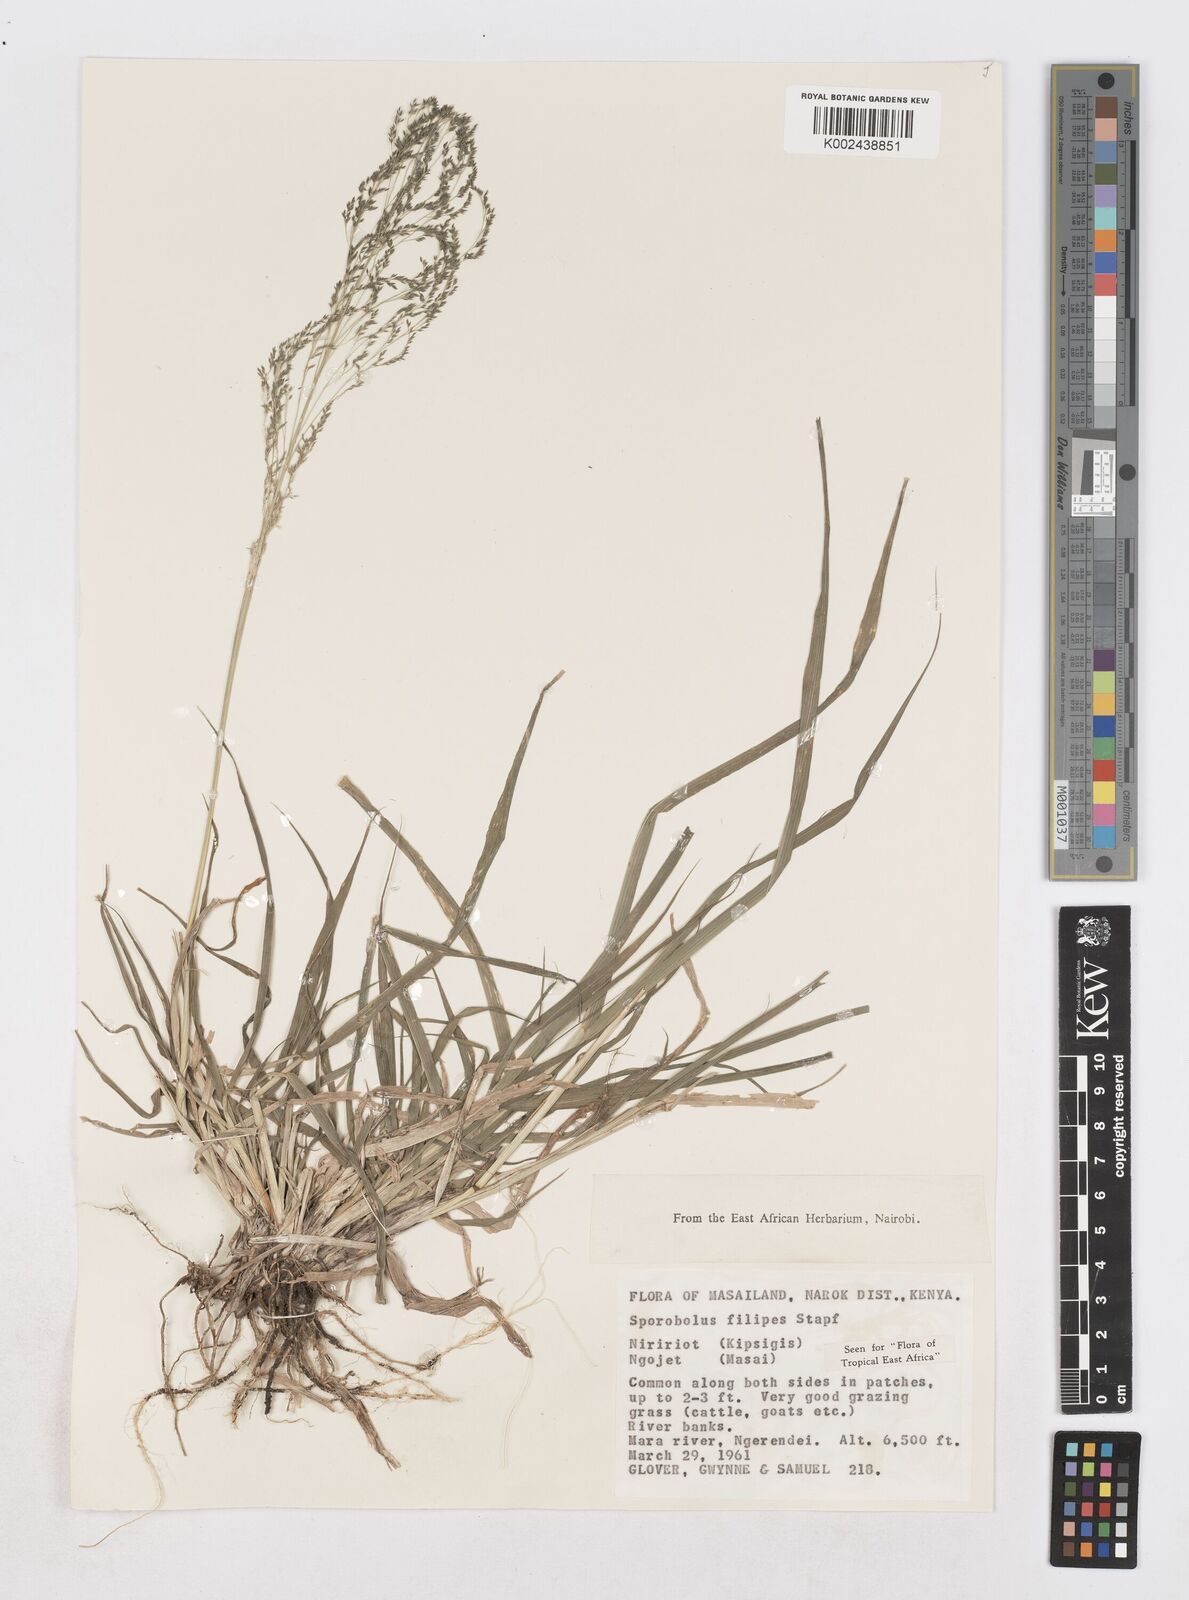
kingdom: Plantae
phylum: Tracheophyta
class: Liliopsida
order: Poales
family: Poaceae
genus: Sporobolus
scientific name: Sporobolus agrostoides
